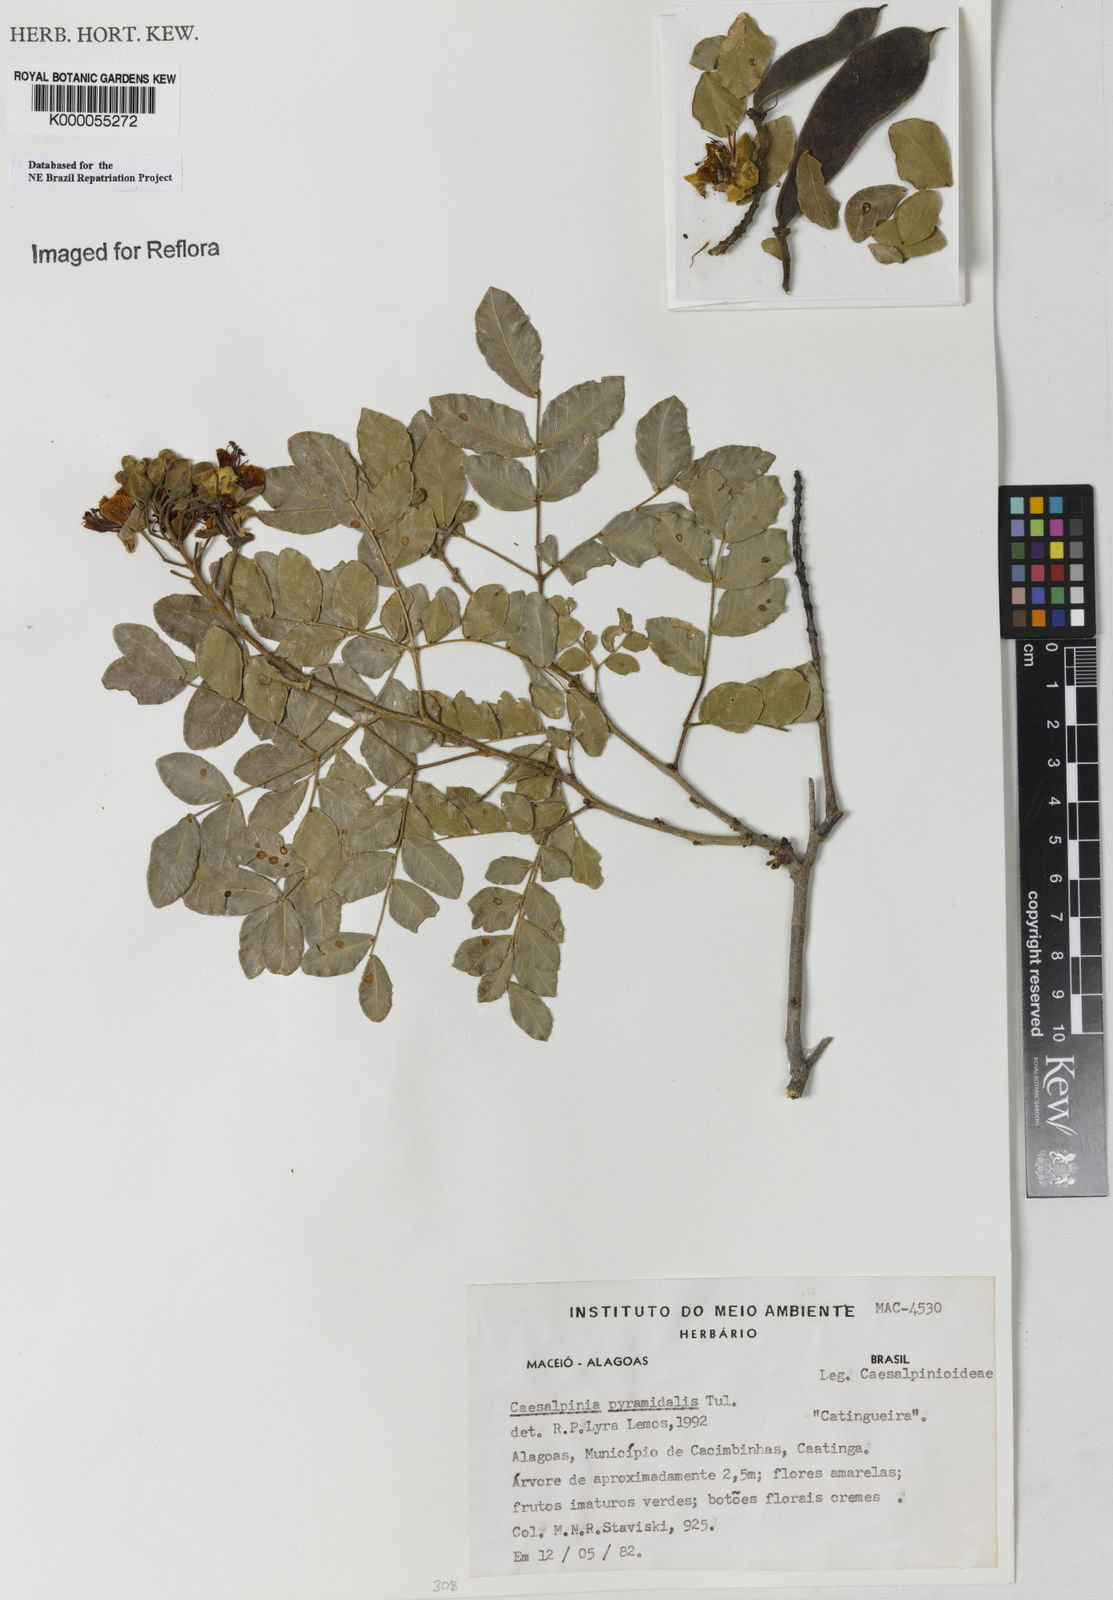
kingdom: Plantae
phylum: Tracheophyta
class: Magnoliopsida
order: Fabales
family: Fabaceae
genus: Cenostigma
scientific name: Cenostigma pyramidale
